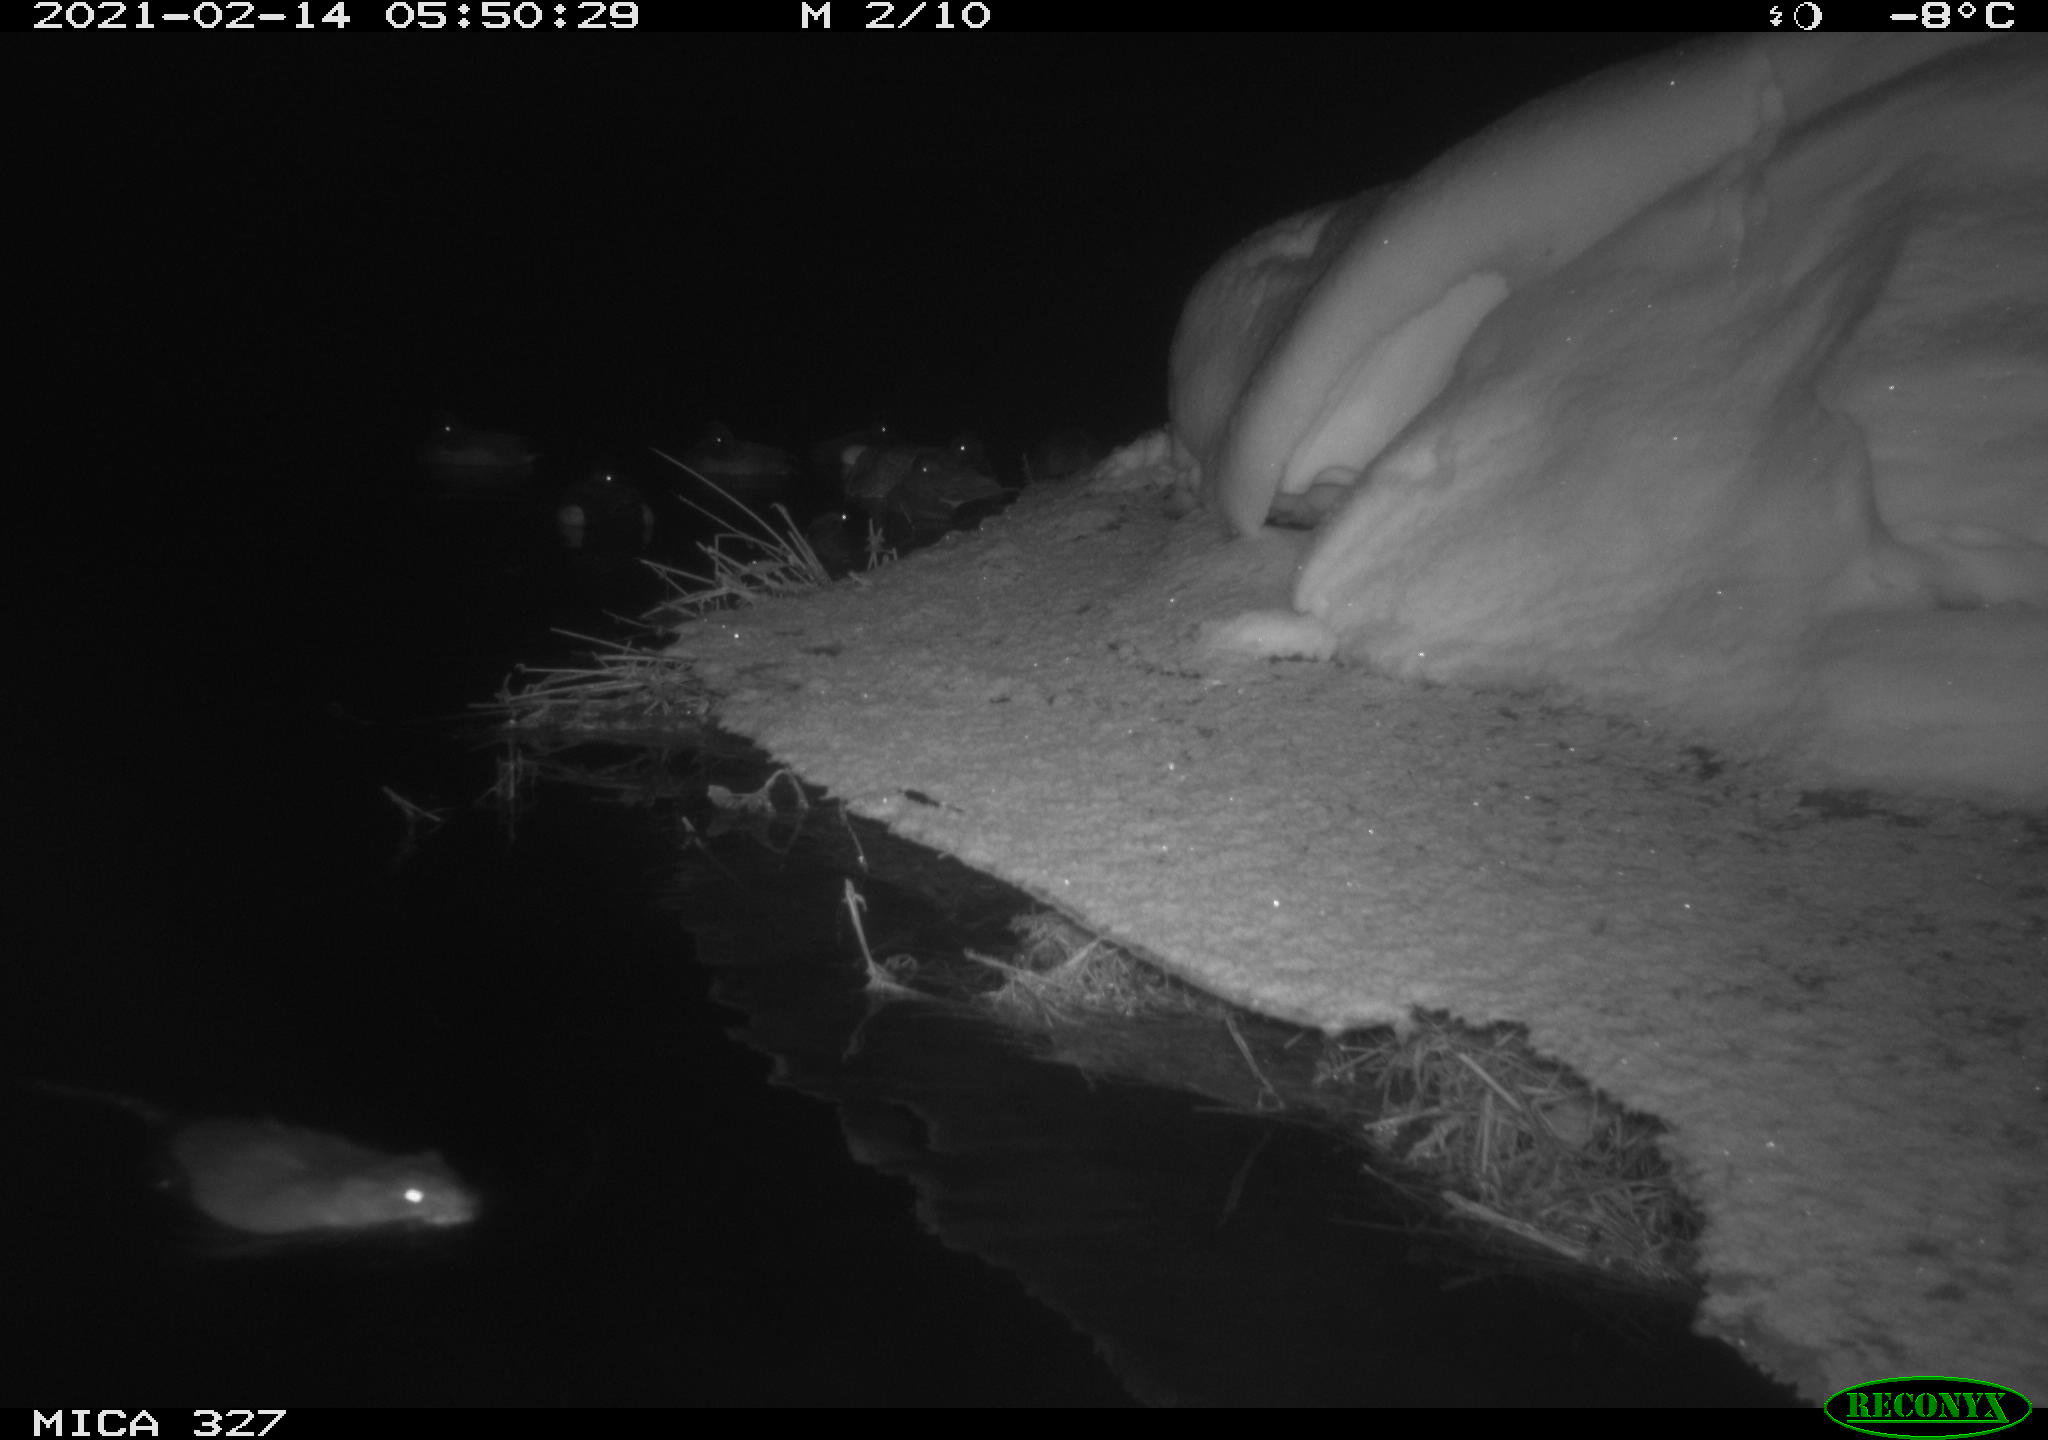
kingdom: Animalia
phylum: Chordata
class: Mammalia
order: Rodentia
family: Cricetidae
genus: Ondatra
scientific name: Ondatra zibethicus
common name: Muskrat
